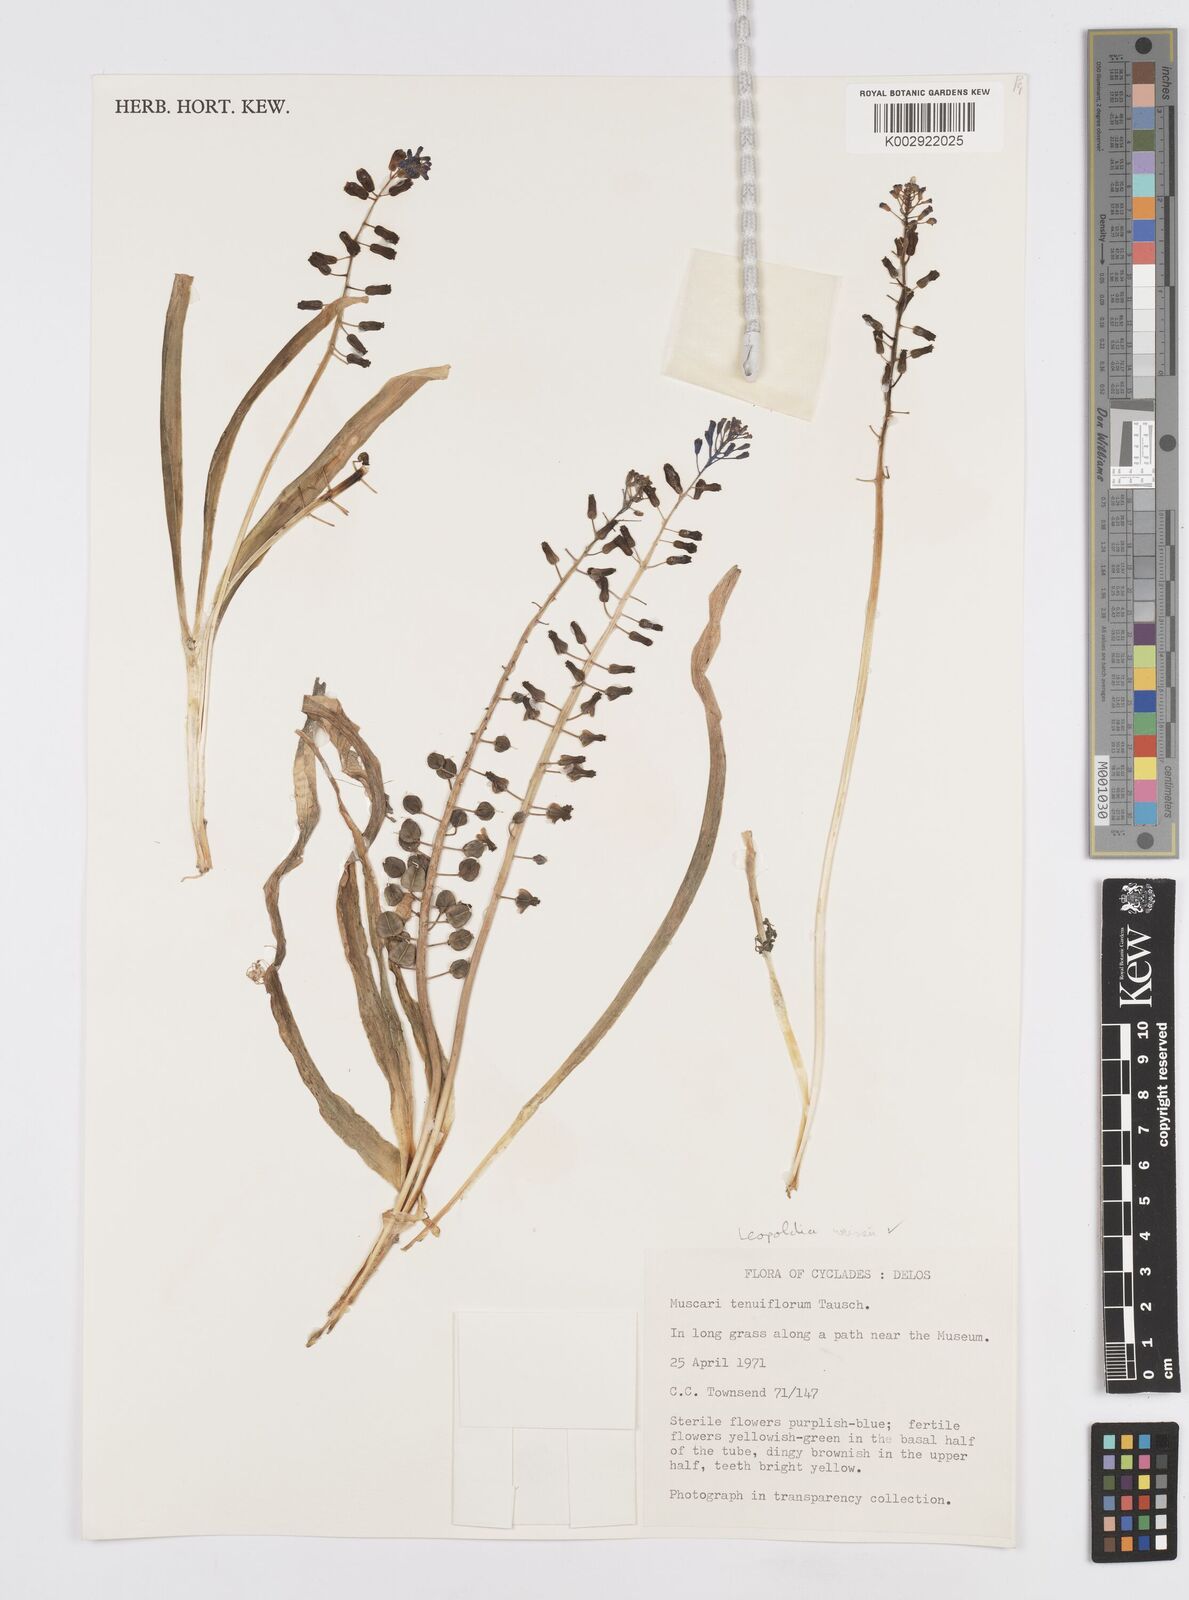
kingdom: Plantae
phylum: Tracheophyta
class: Liliopsida
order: Asparagales
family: Asparagaceae
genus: Muscari
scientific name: Muscari weissii
